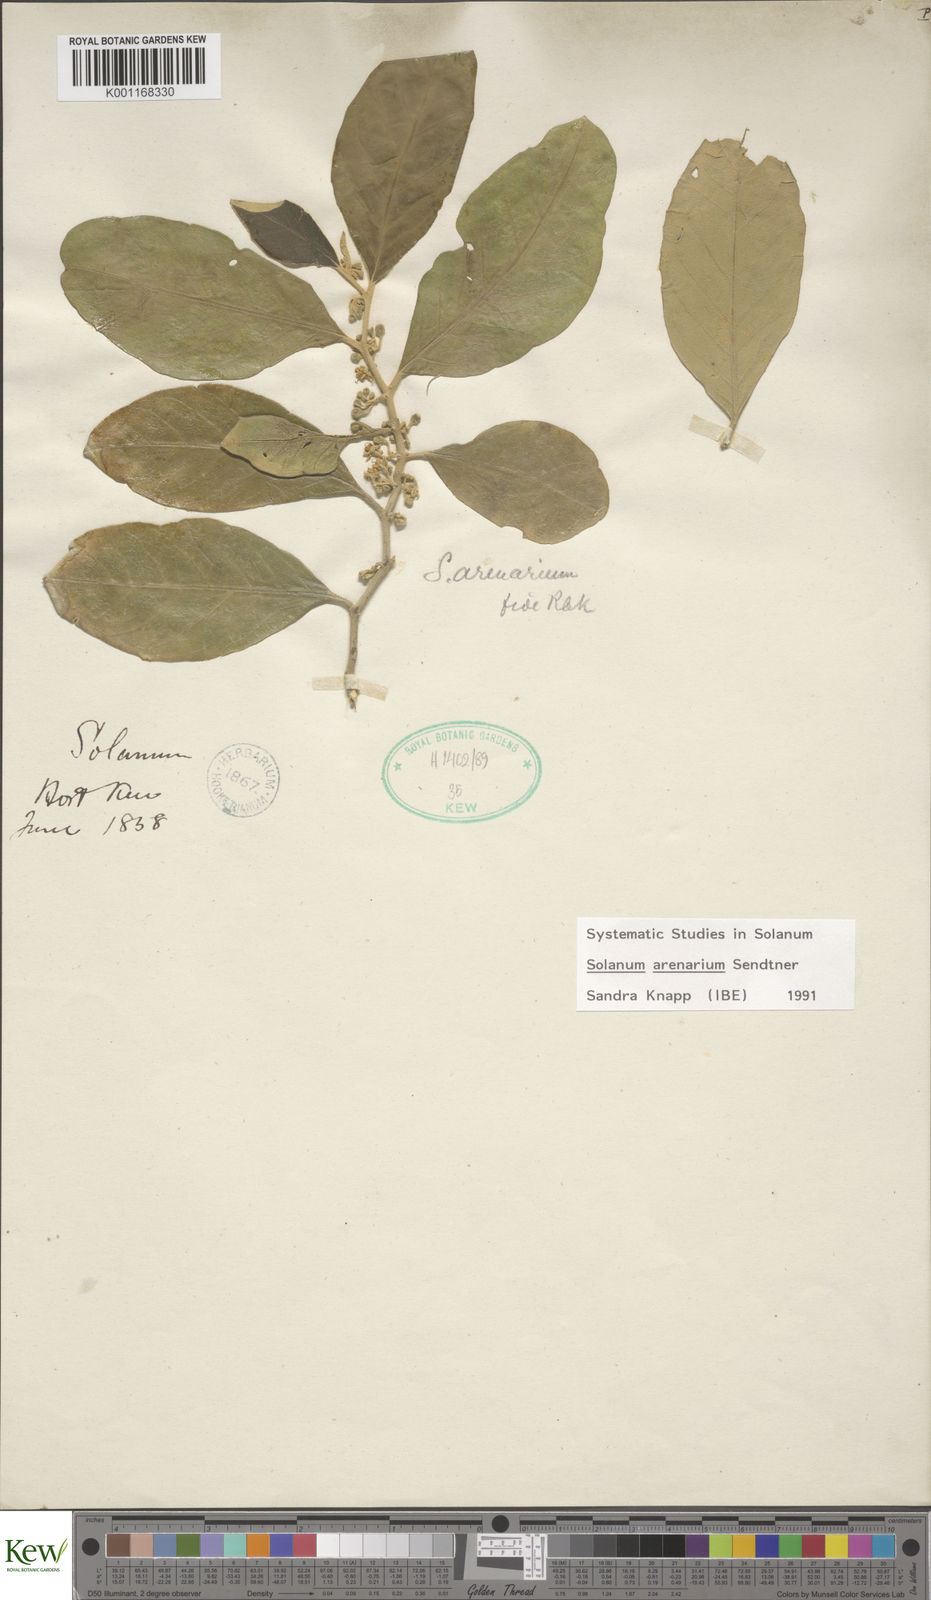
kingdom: Plantae
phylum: Tracheophyta
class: Magnoliopsida
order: Solanales
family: Solanaceae
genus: Solanum
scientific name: Solanum arenarium
